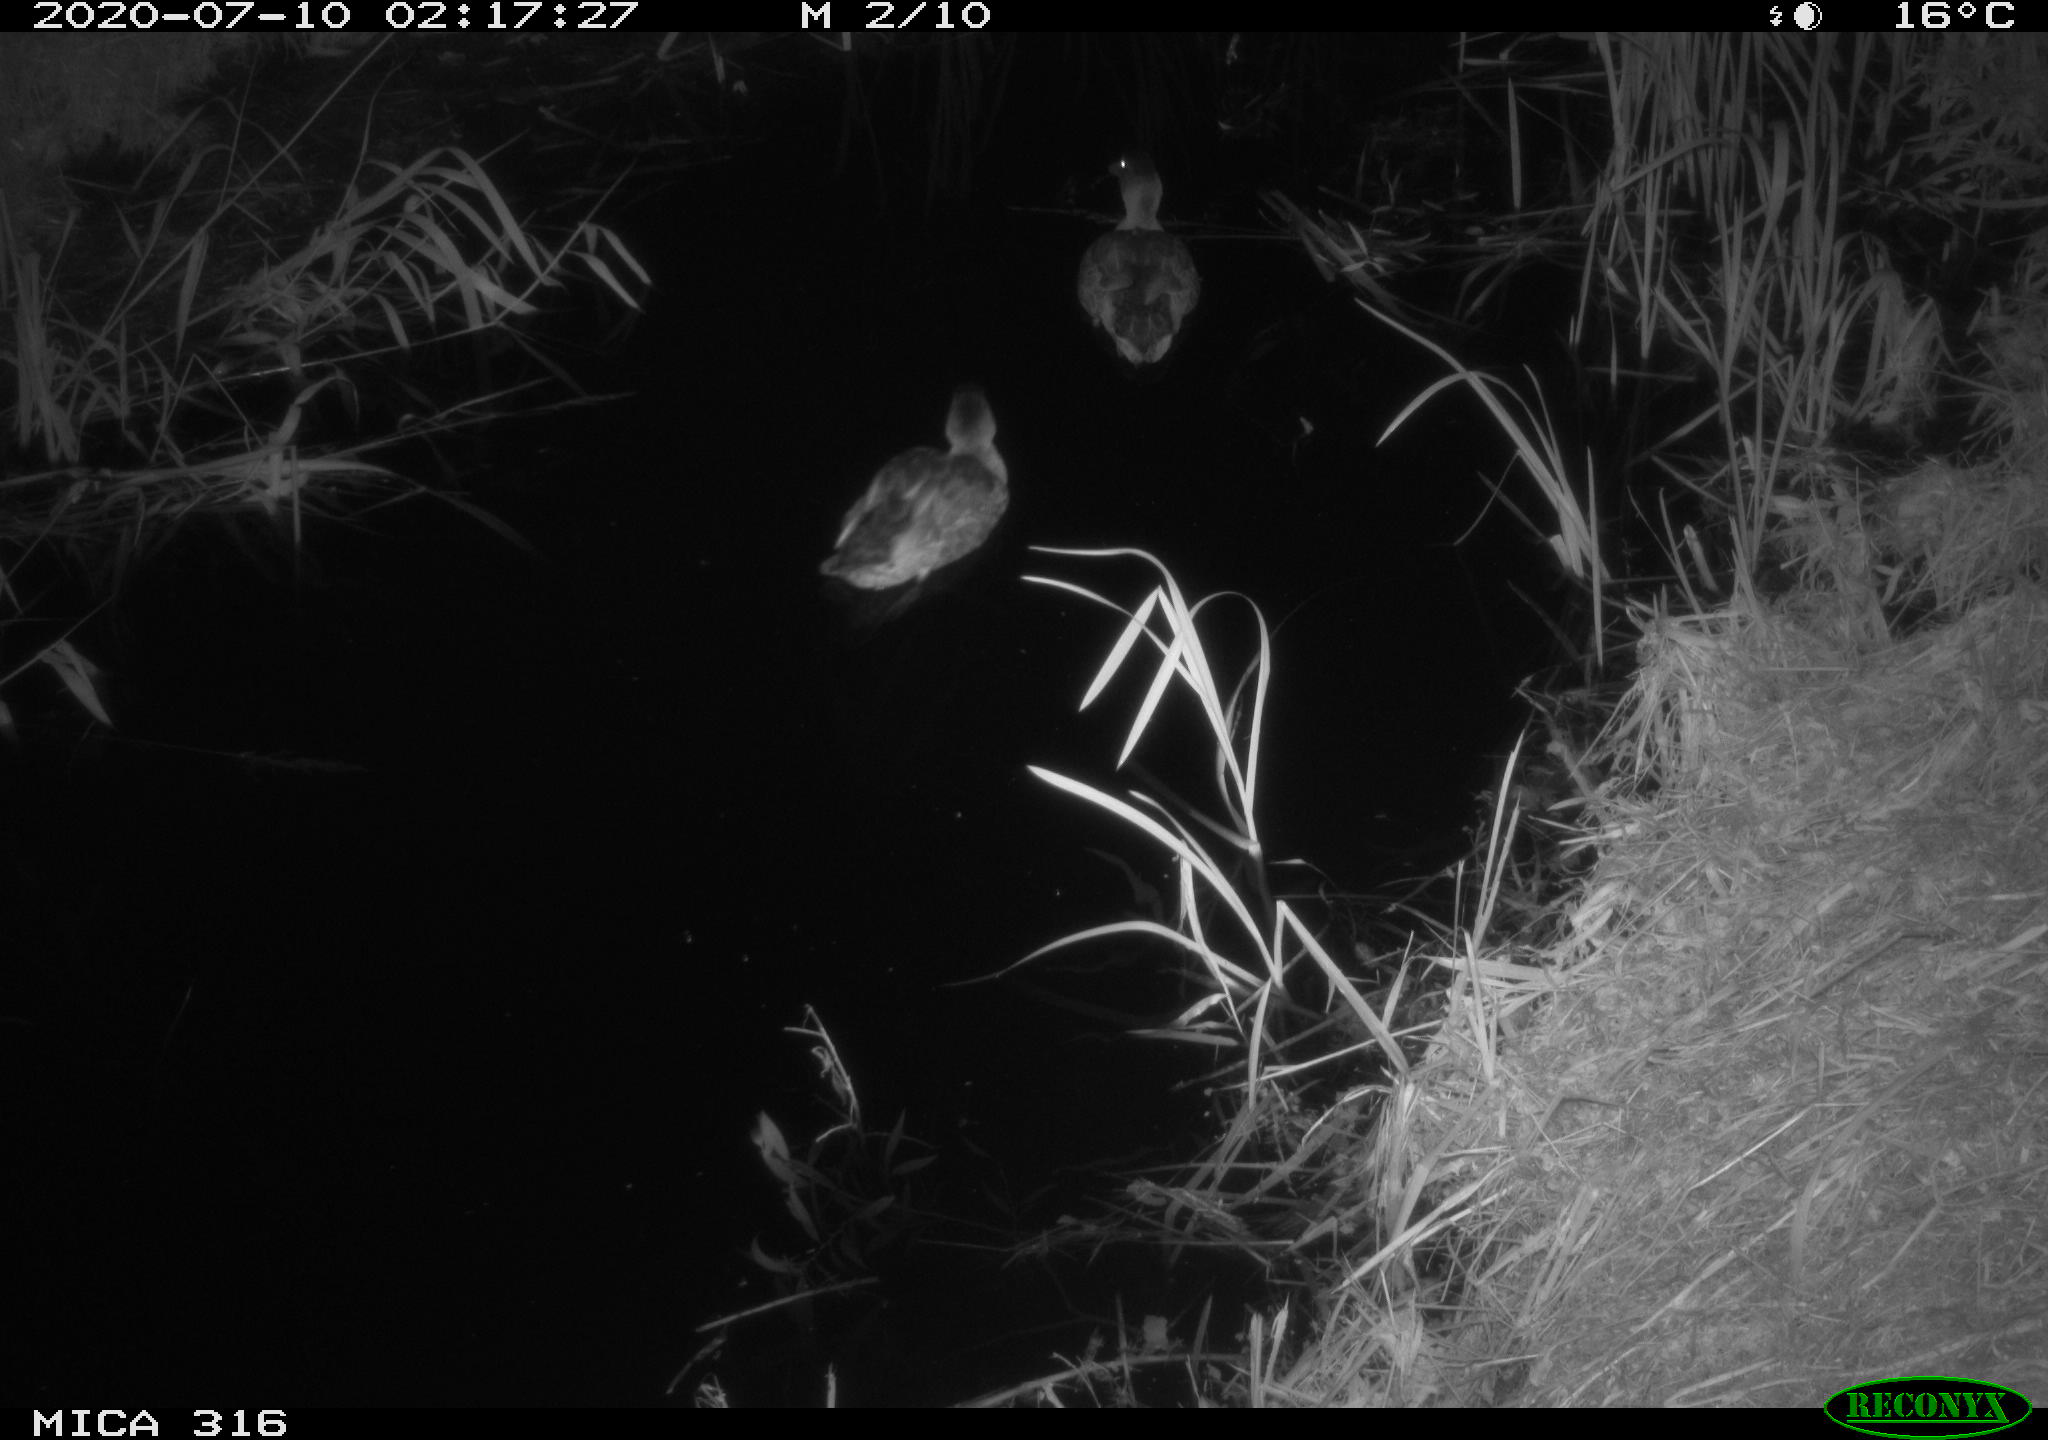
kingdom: Animalia
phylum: Chordata
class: Aves
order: Anseriformes
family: Anatidae
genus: Anas
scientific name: Anas platyrhynchos
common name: Mallard
